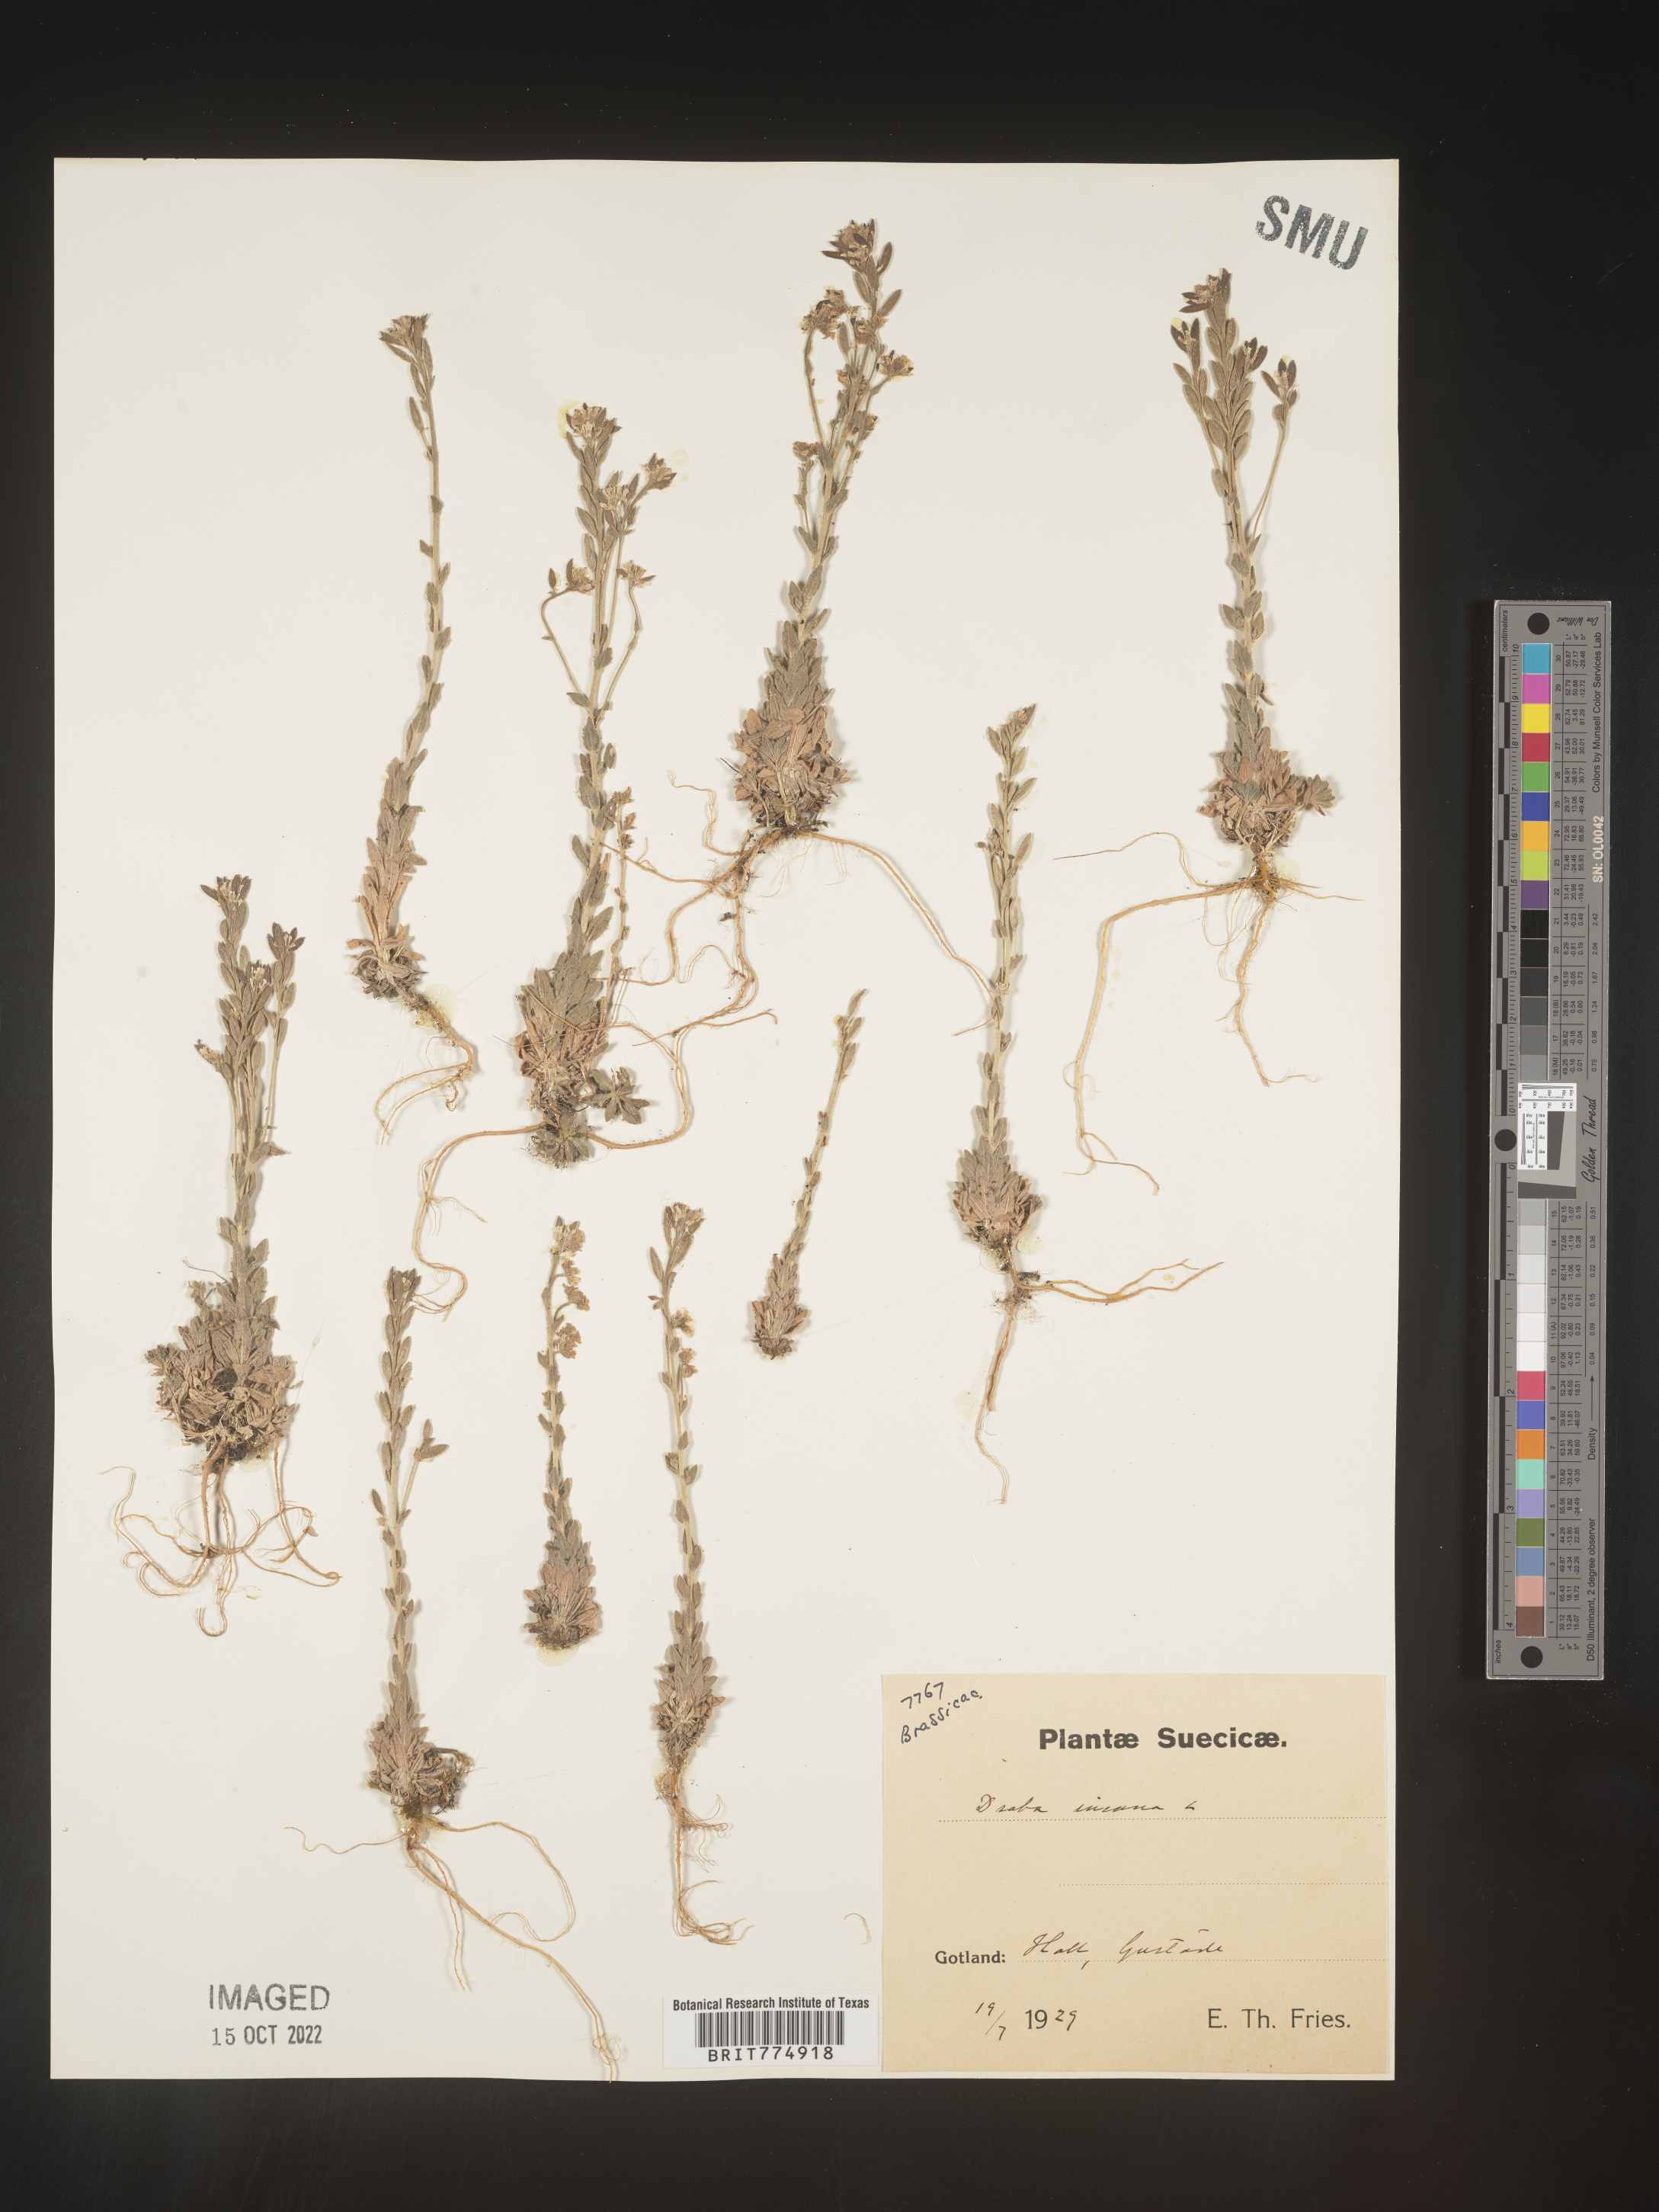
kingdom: Plantae
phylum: Tracheophyta
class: Magnoliopsida
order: Brassicales
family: Brassicaceae
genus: Draba
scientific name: Draba
